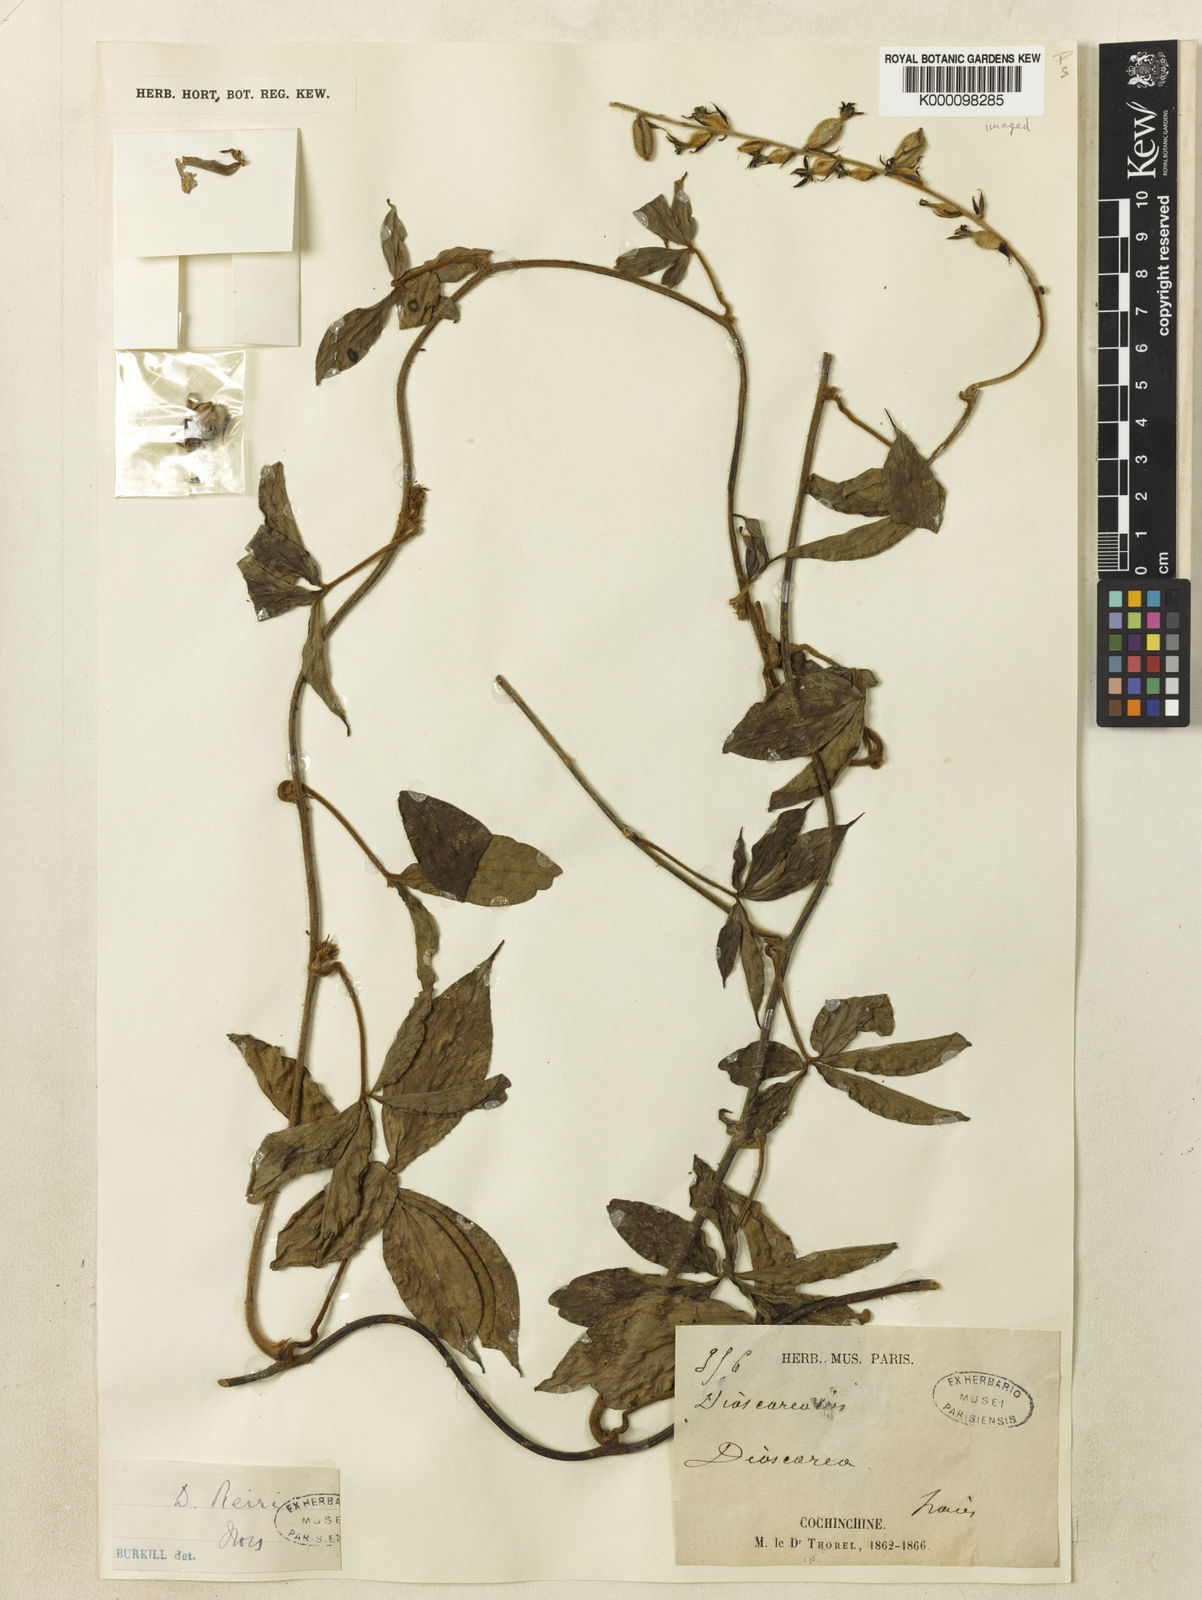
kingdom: Plantae
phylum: Tracheophyta
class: Liliopsida
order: Dioscoreales
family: Dioscoreaceae
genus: Dioscorea
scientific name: Dioscorea pierrei
